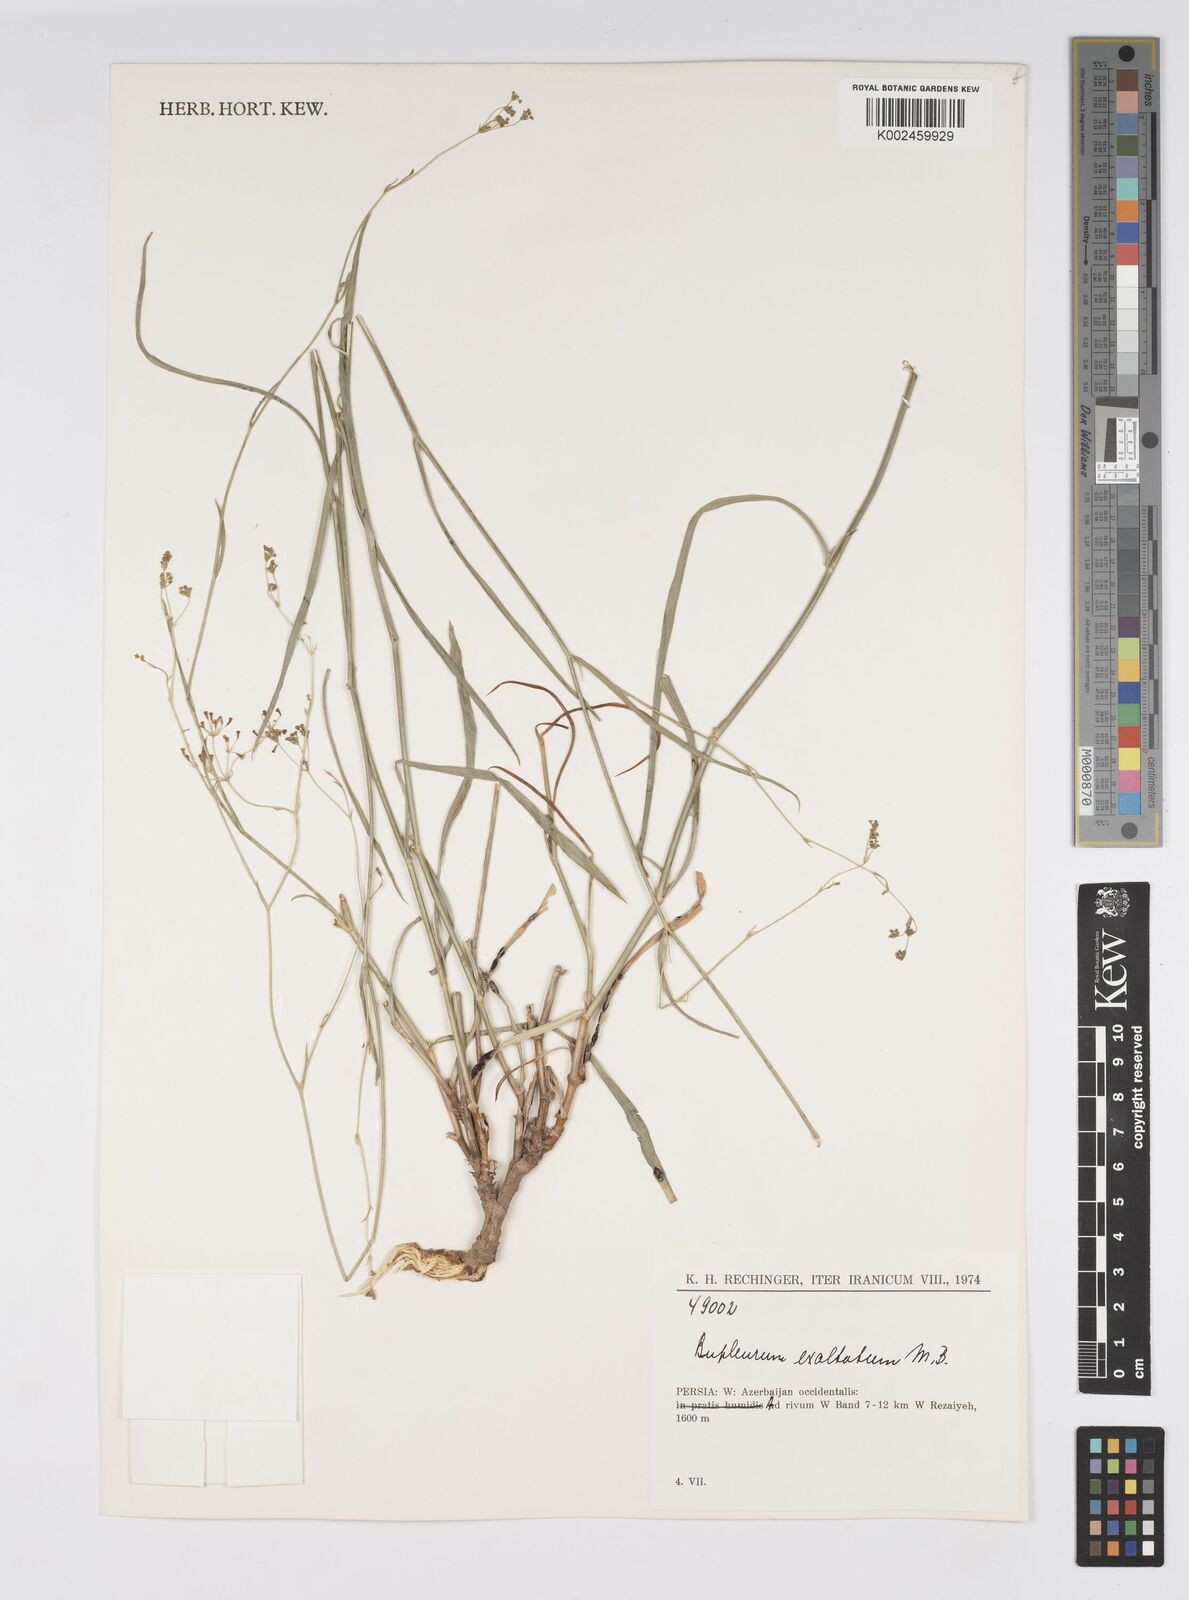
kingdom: Plantae
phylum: Tracheophyta
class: Magnoliopsida
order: Apiales
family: Apiaceae
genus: Bupleurum
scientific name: Bupleurum falcatum
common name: Sickle-leaved hare's-ear
